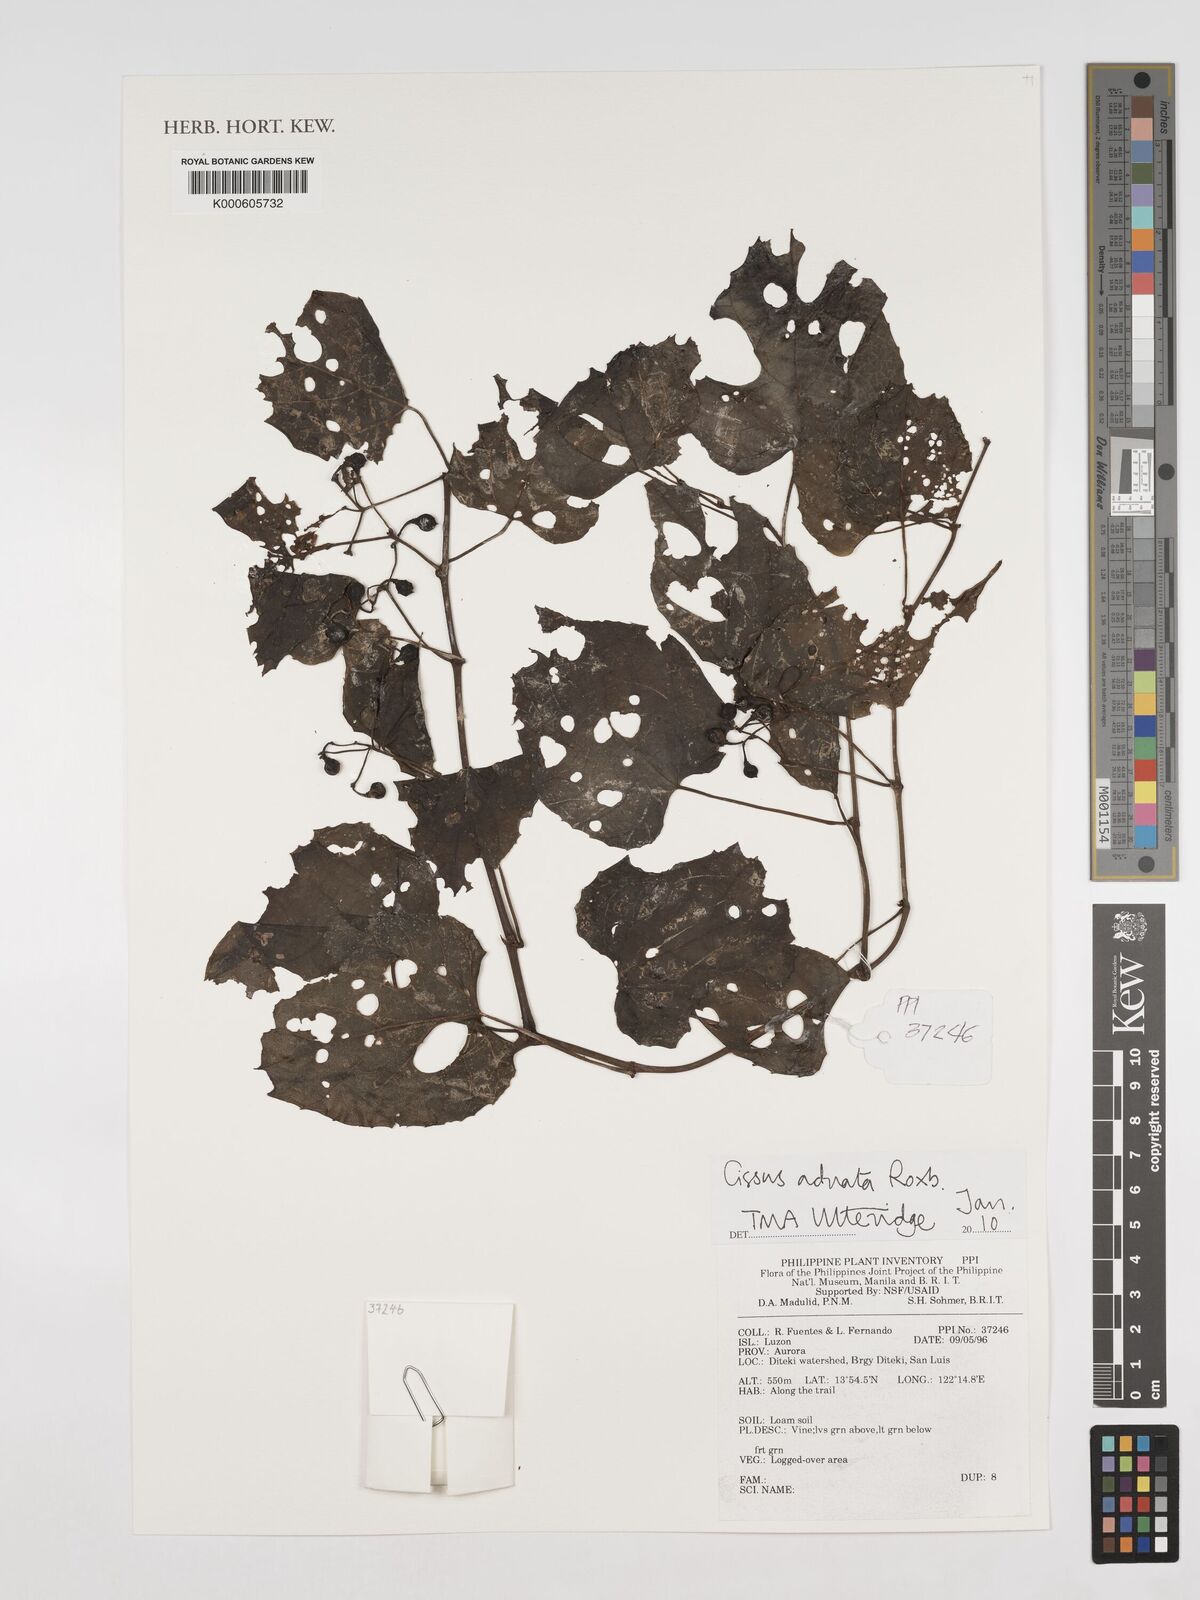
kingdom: Plantae
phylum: Tracheophyta
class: Magnoliopsida
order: Vitales
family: Vitaceae
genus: Cissus
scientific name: Cissus adnata
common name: Heart-leaf-grape
